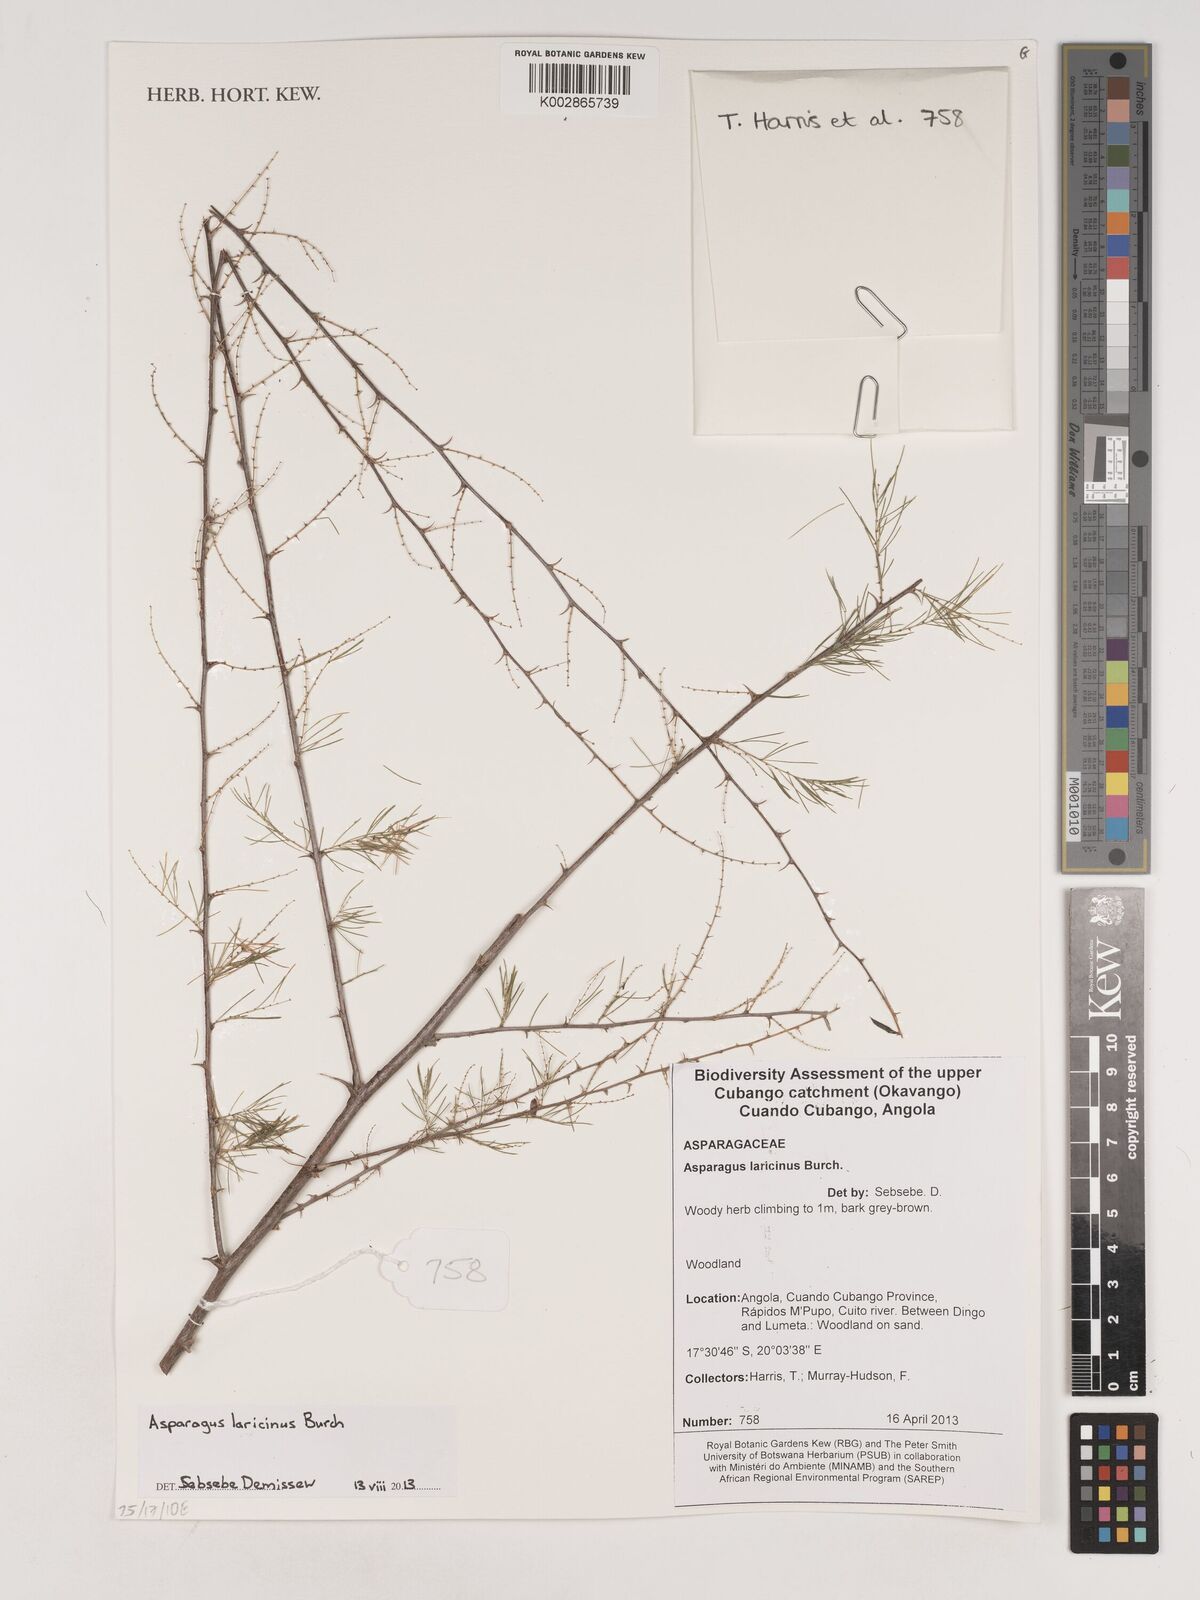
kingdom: Plantae
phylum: Tracheophyta
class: Liliopsida
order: Asparagales
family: Asparagaceae
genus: Asparagus
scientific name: Asparagus laricinus
